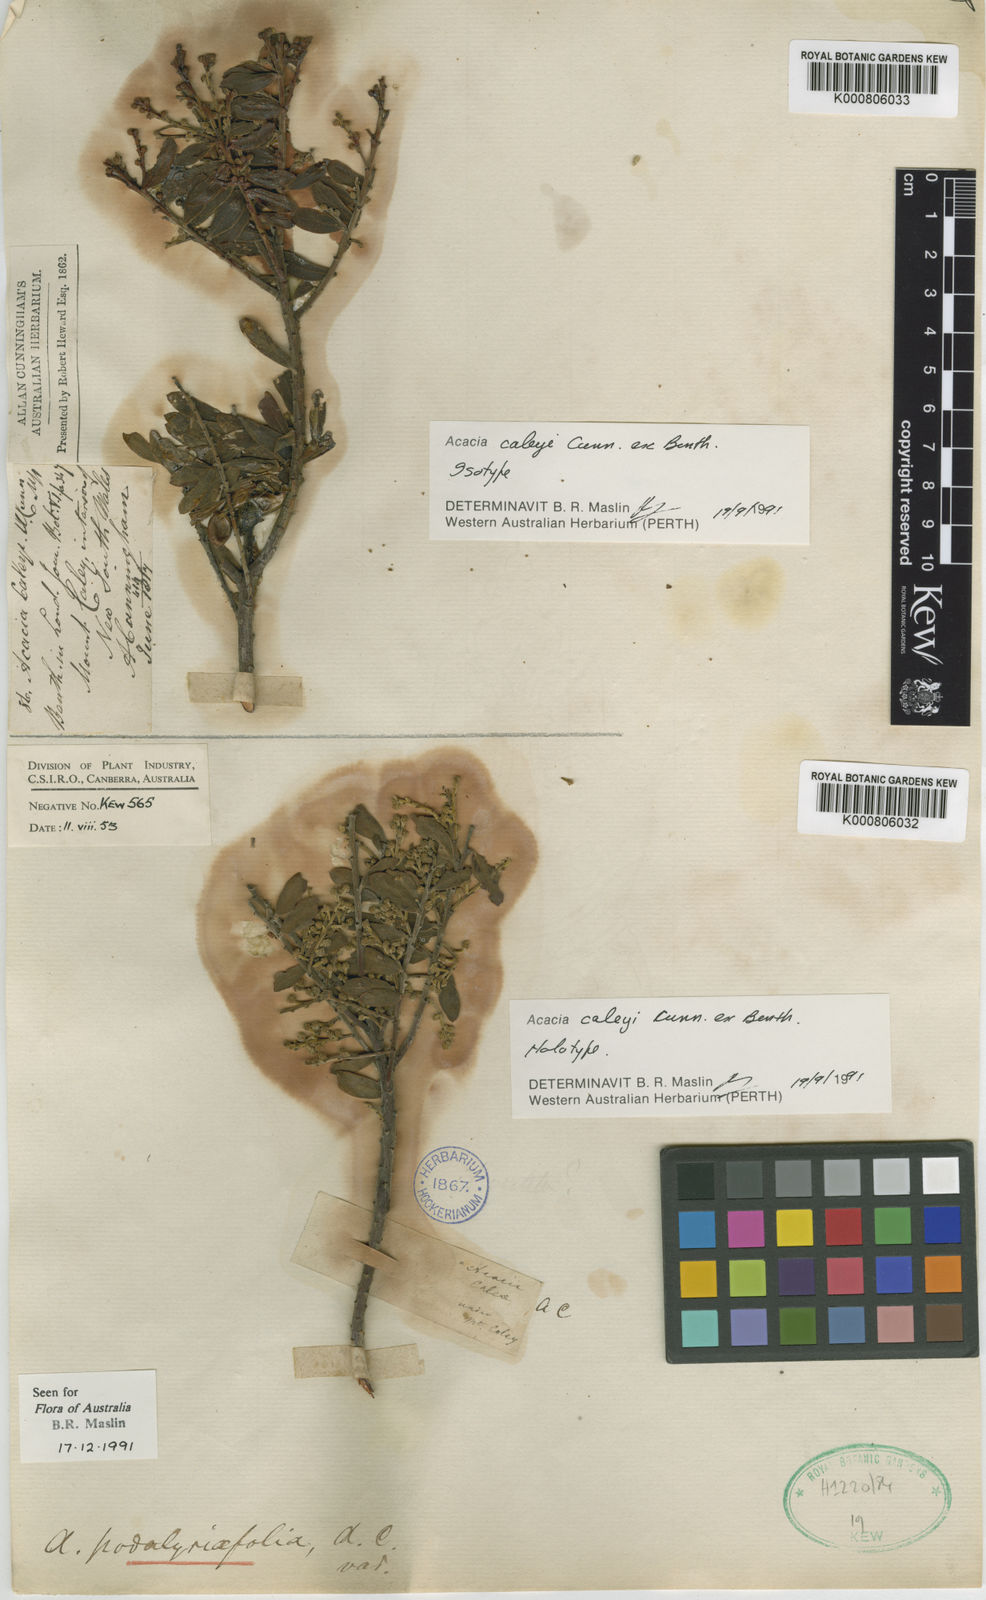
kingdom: Plantae
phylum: Tracheophyta
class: Magnoliopsida
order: Fabales
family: Fabaceae
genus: Acacia
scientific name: Acacia podalyriifolia
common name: Pearl wattle
